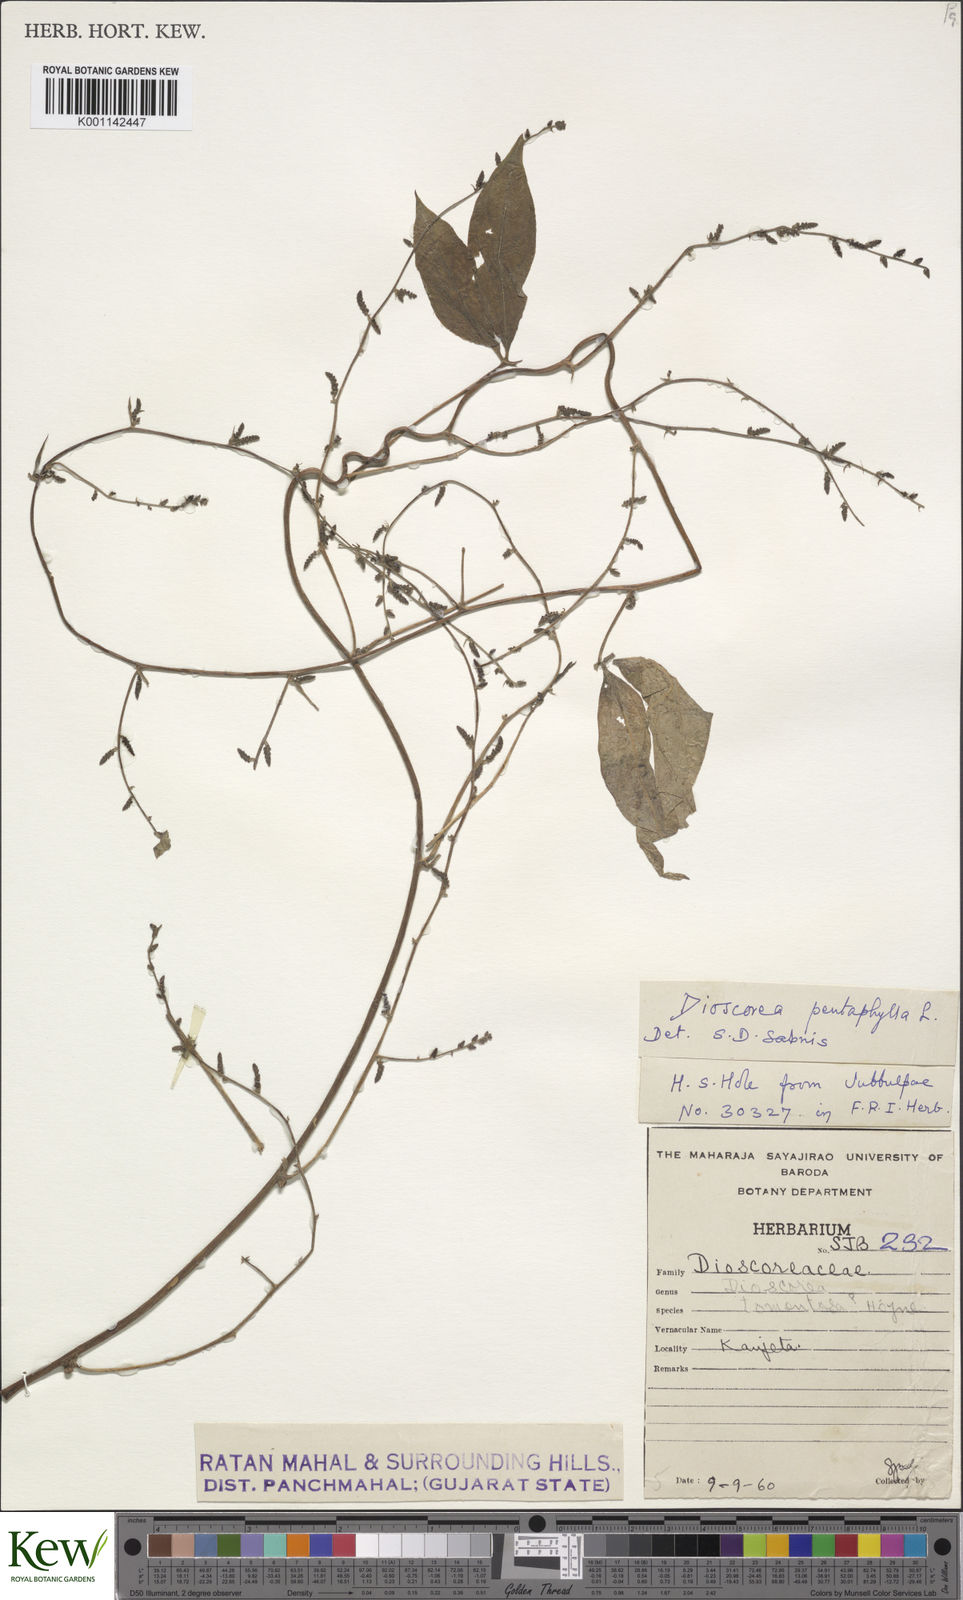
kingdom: Plantae
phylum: Tracheophyta
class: Liliopsida
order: Dioscoreales
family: Dioscoreaceae
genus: Dioscorea
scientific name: Dioscorea pentaphylla
